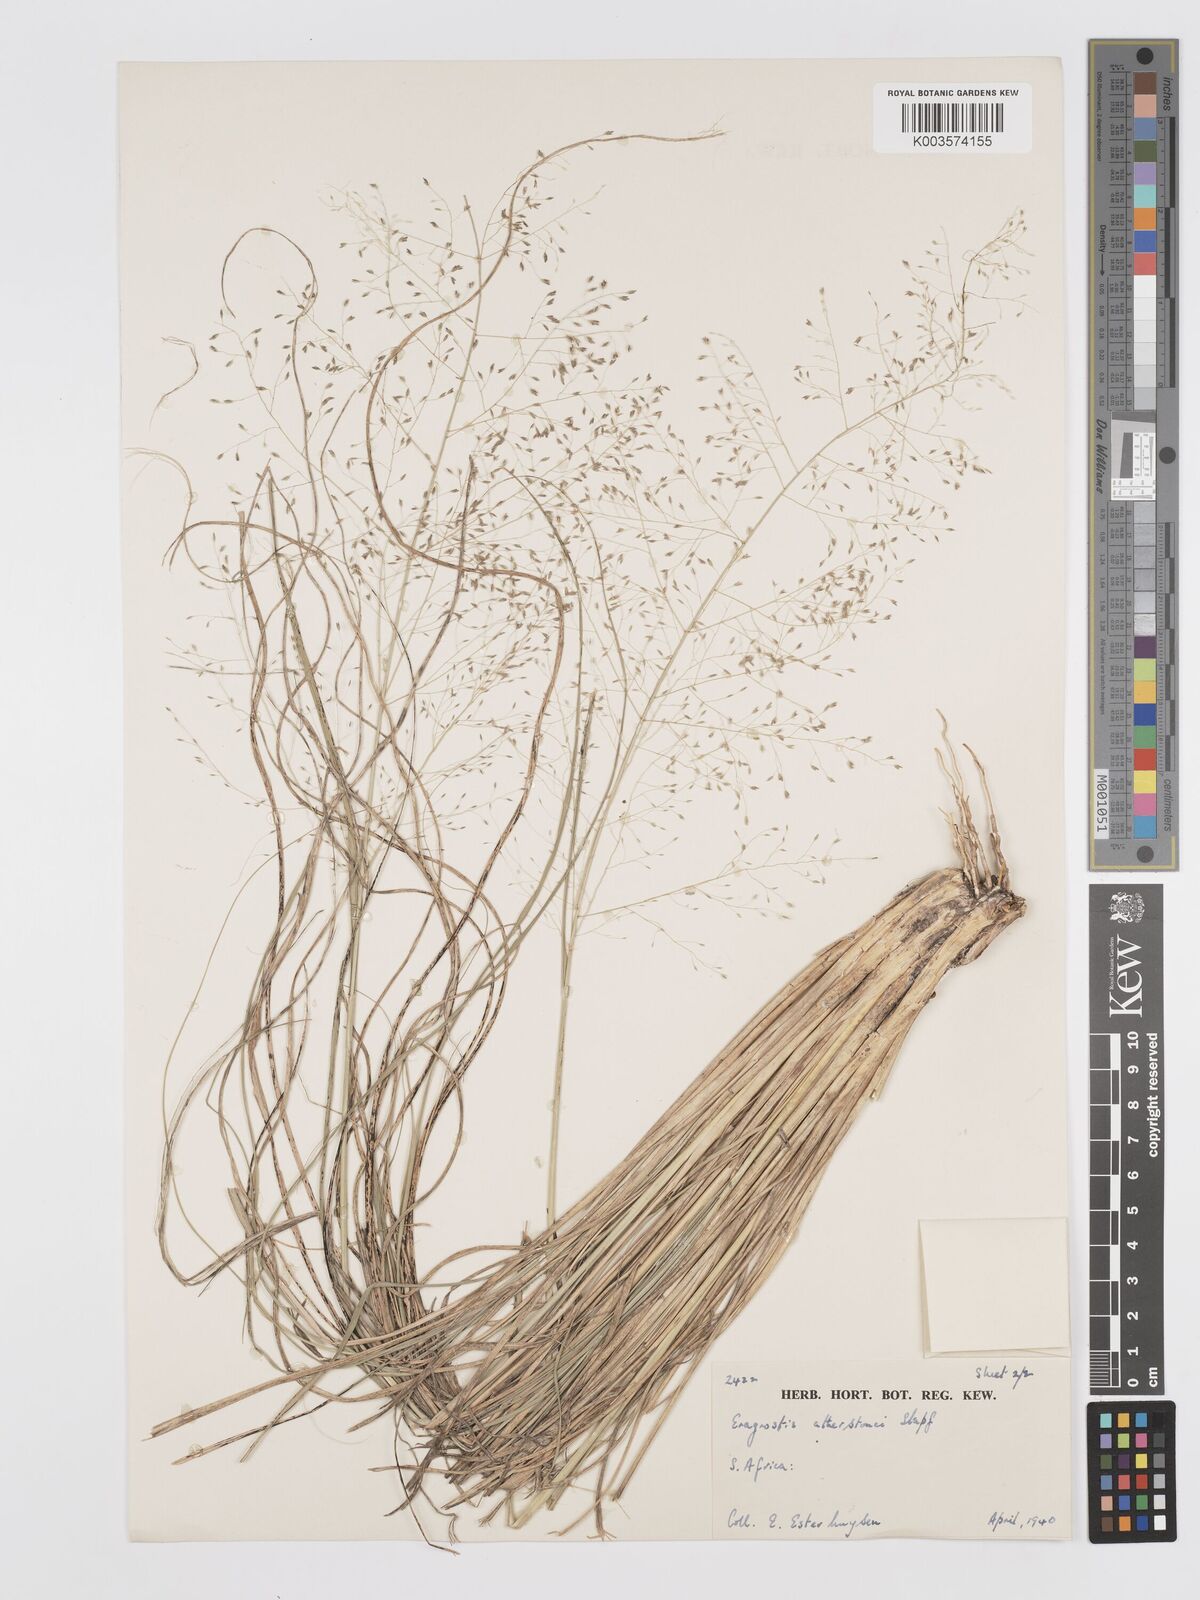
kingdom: Plantae
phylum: Tracheophyta
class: Liliopsida
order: Poales
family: Poaceae
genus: Eragrostis
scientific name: Eragrostis cylindriflora
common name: Cylinderflower lovegrass
